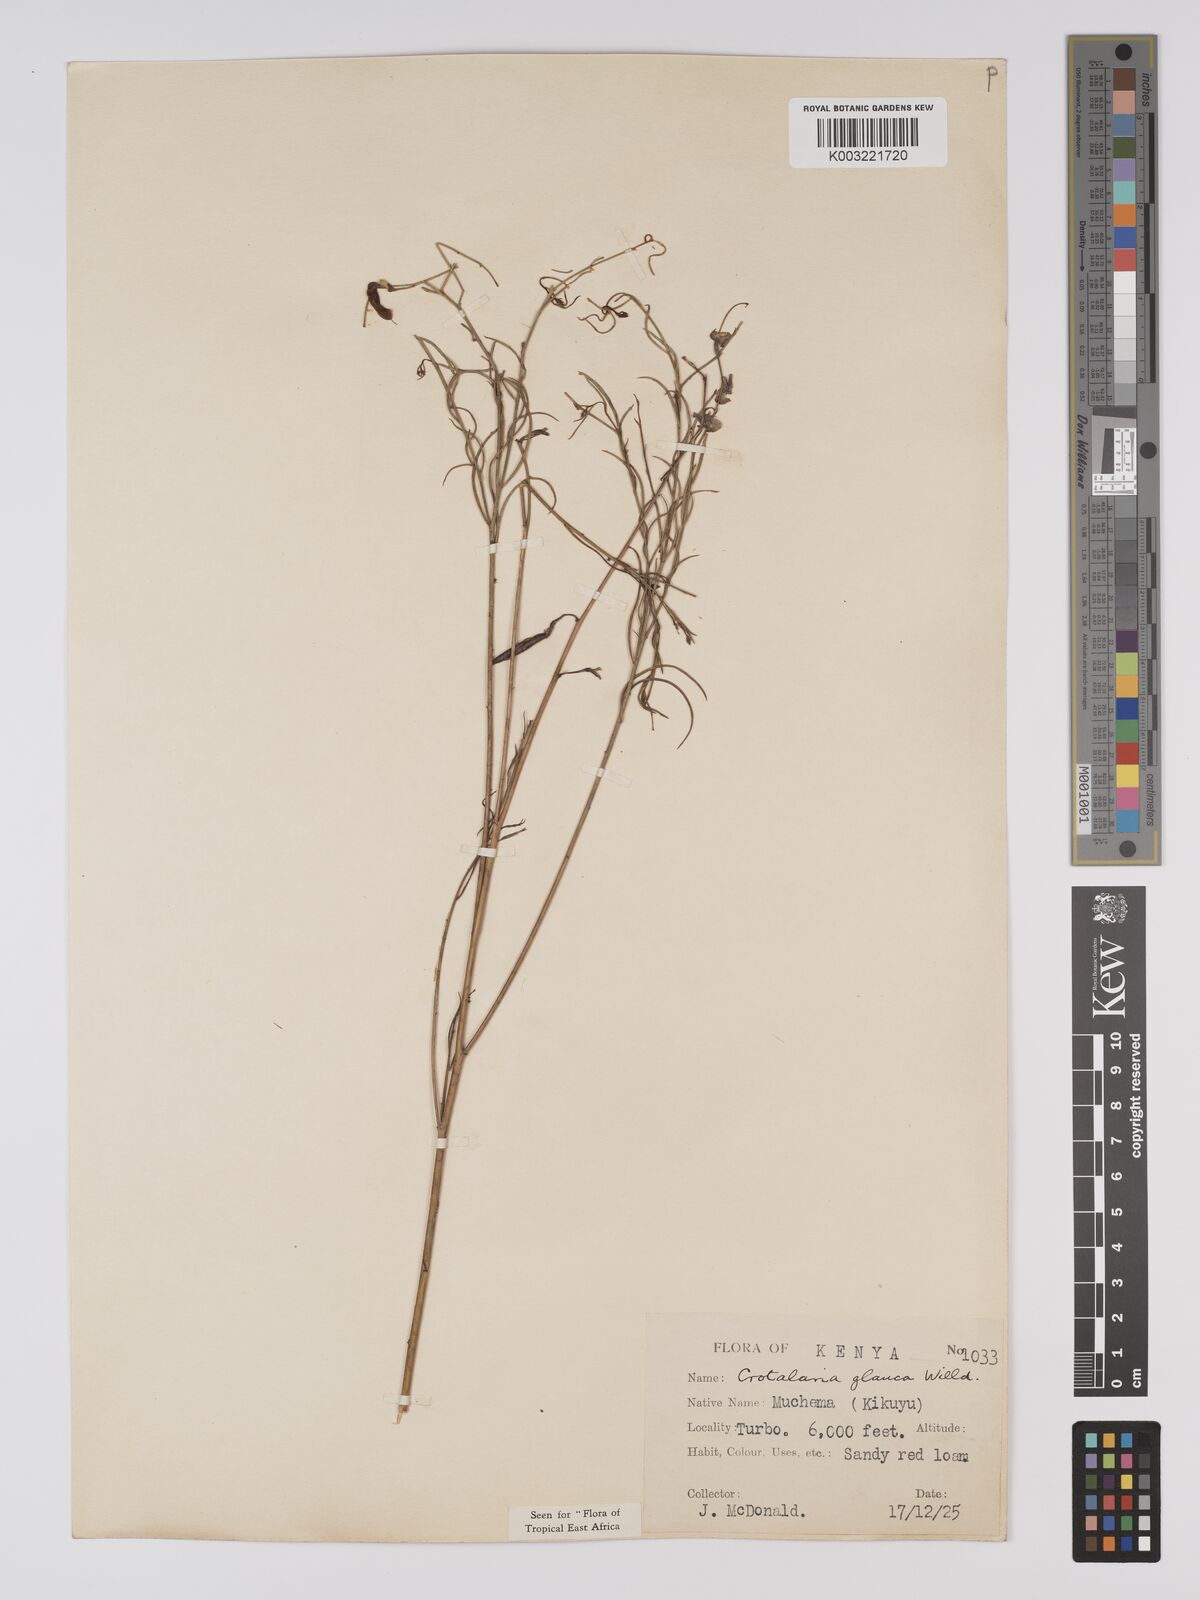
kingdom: Plantae
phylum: Tracheophyta
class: Magnoliopsida
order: Fabales
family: Fabaceae
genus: Crotalaria
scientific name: Crotalaria glauca
